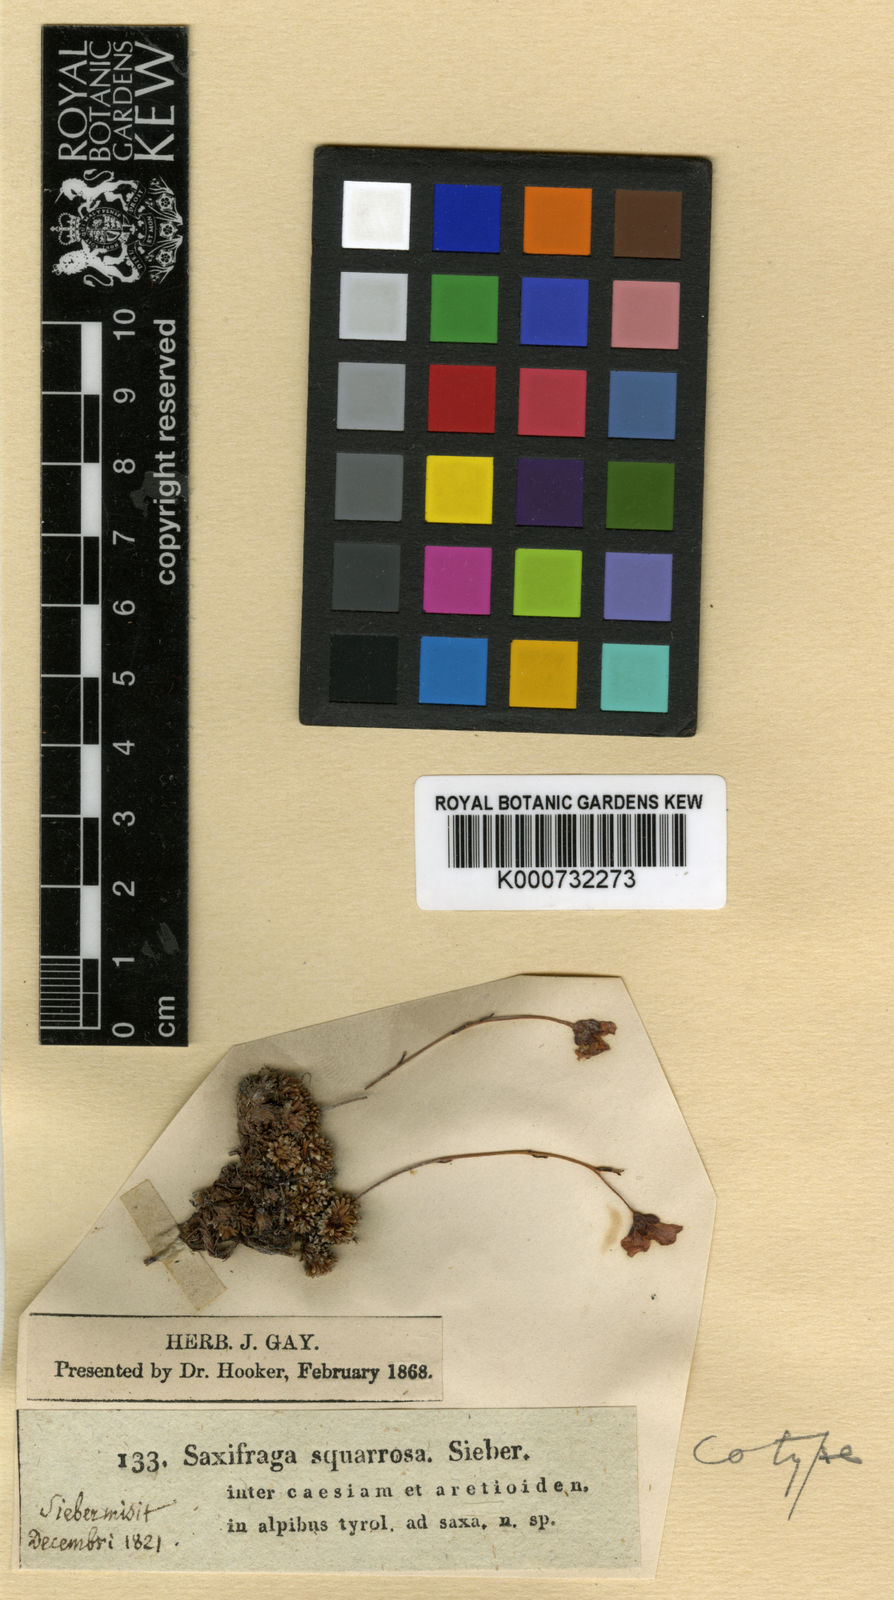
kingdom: Plantae
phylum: Tracheophyta
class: Magnoliopsida
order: Saxifragales
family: Saxifragaceae
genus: Saxifraga
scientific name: Saxifraga squarrosa
